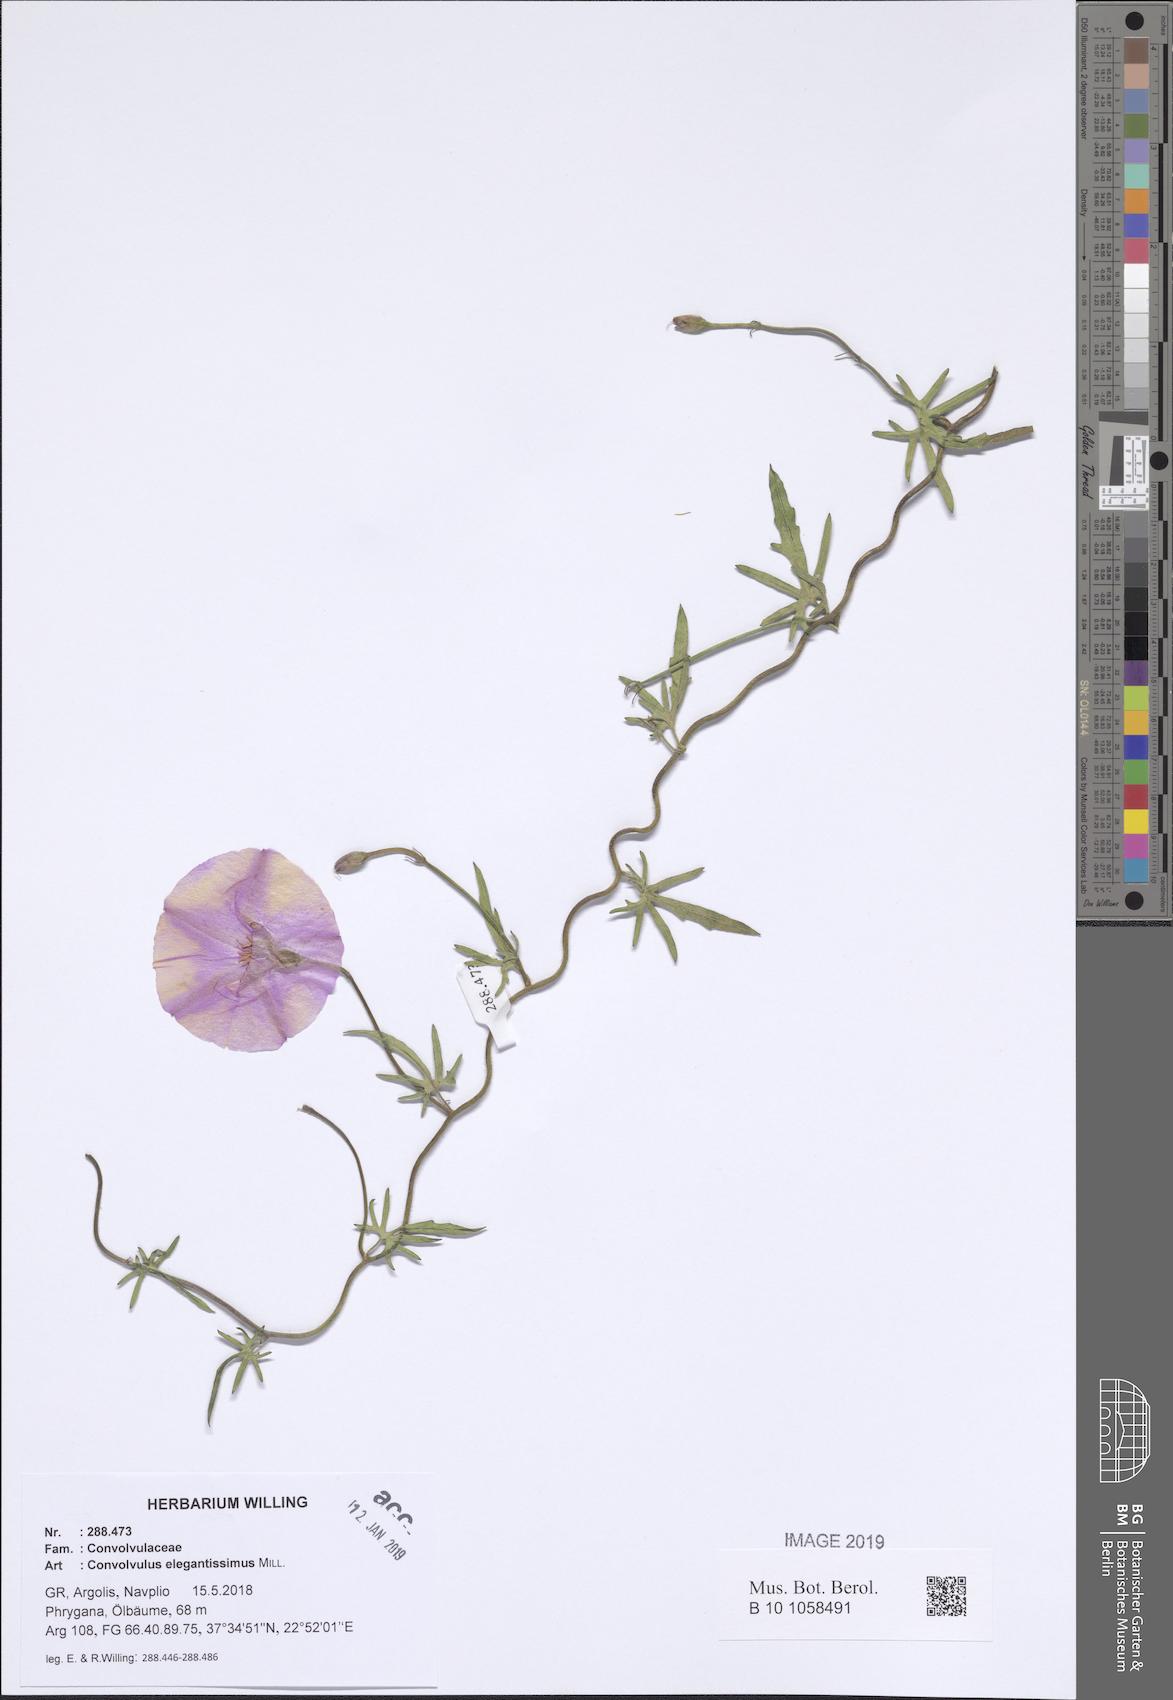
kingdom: Plantae
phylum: Tracheophyta
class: Magnoliopsida
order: Solanales
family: Convolvulaceae
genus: Convolvulus
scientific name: Convolvulus elegantissimus
